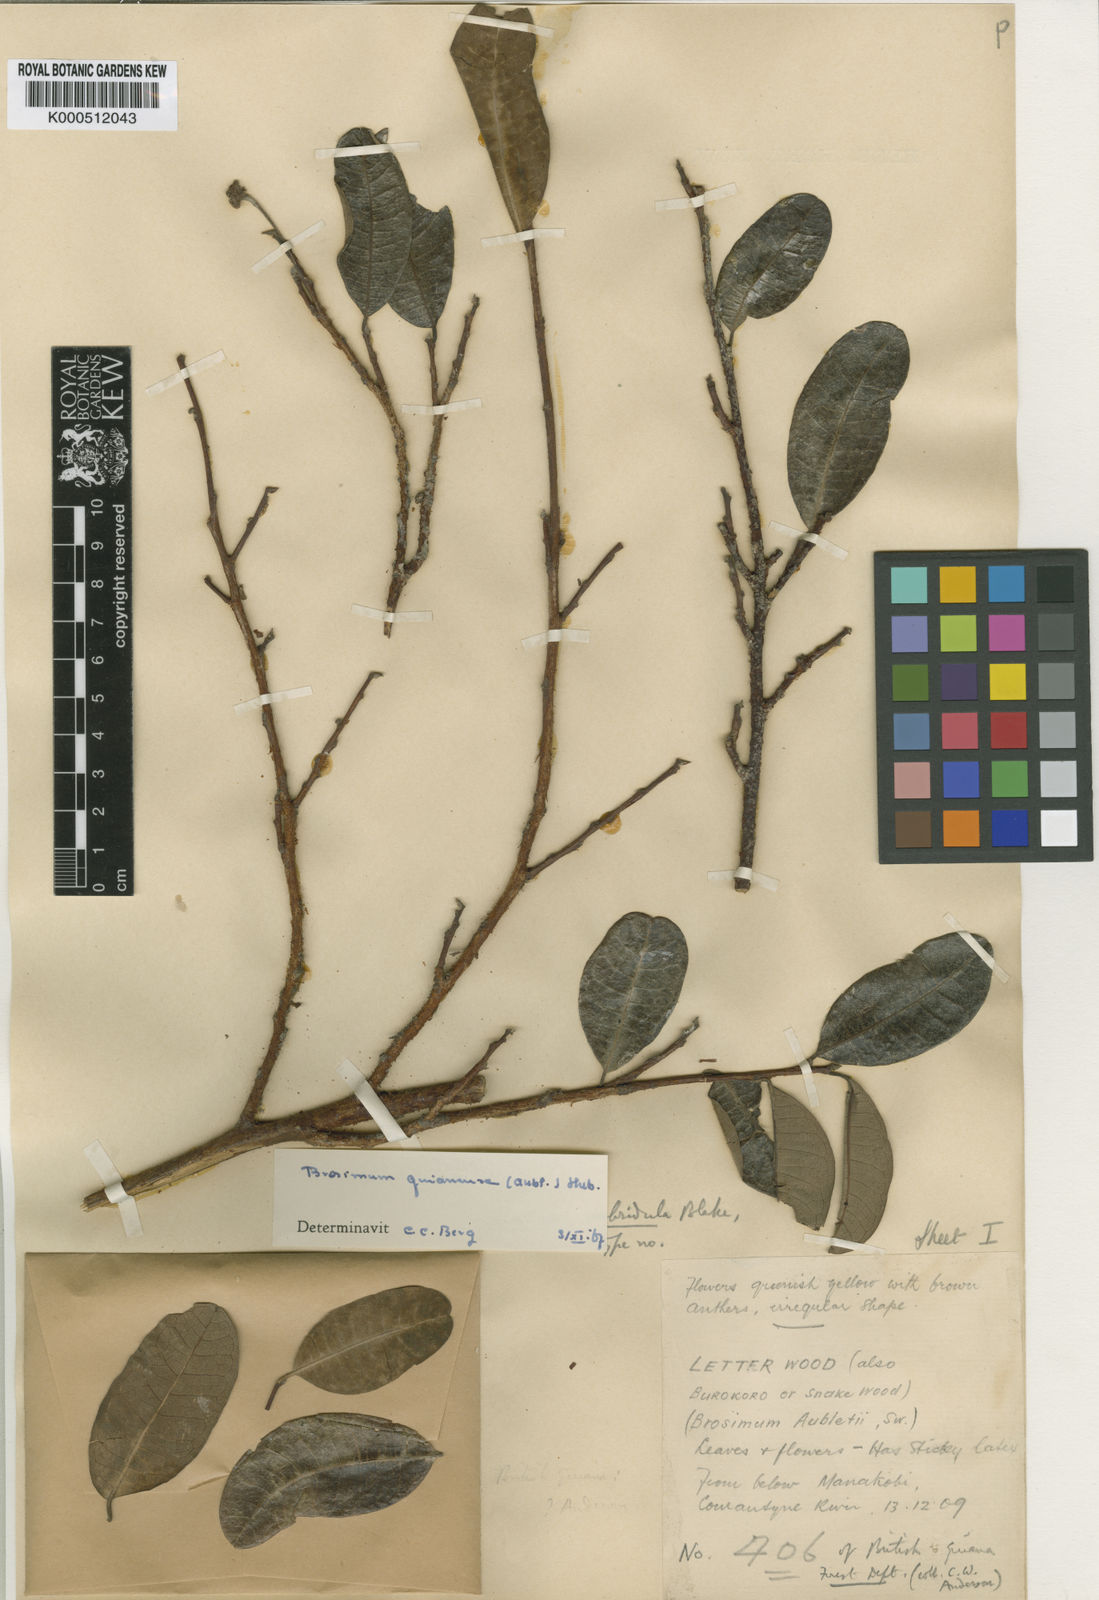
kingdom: Plantae
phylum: Tracheophyta
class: Magnoliopsida
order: Rosales
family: Moraceae
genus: Brosimum
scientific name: Brosimum
